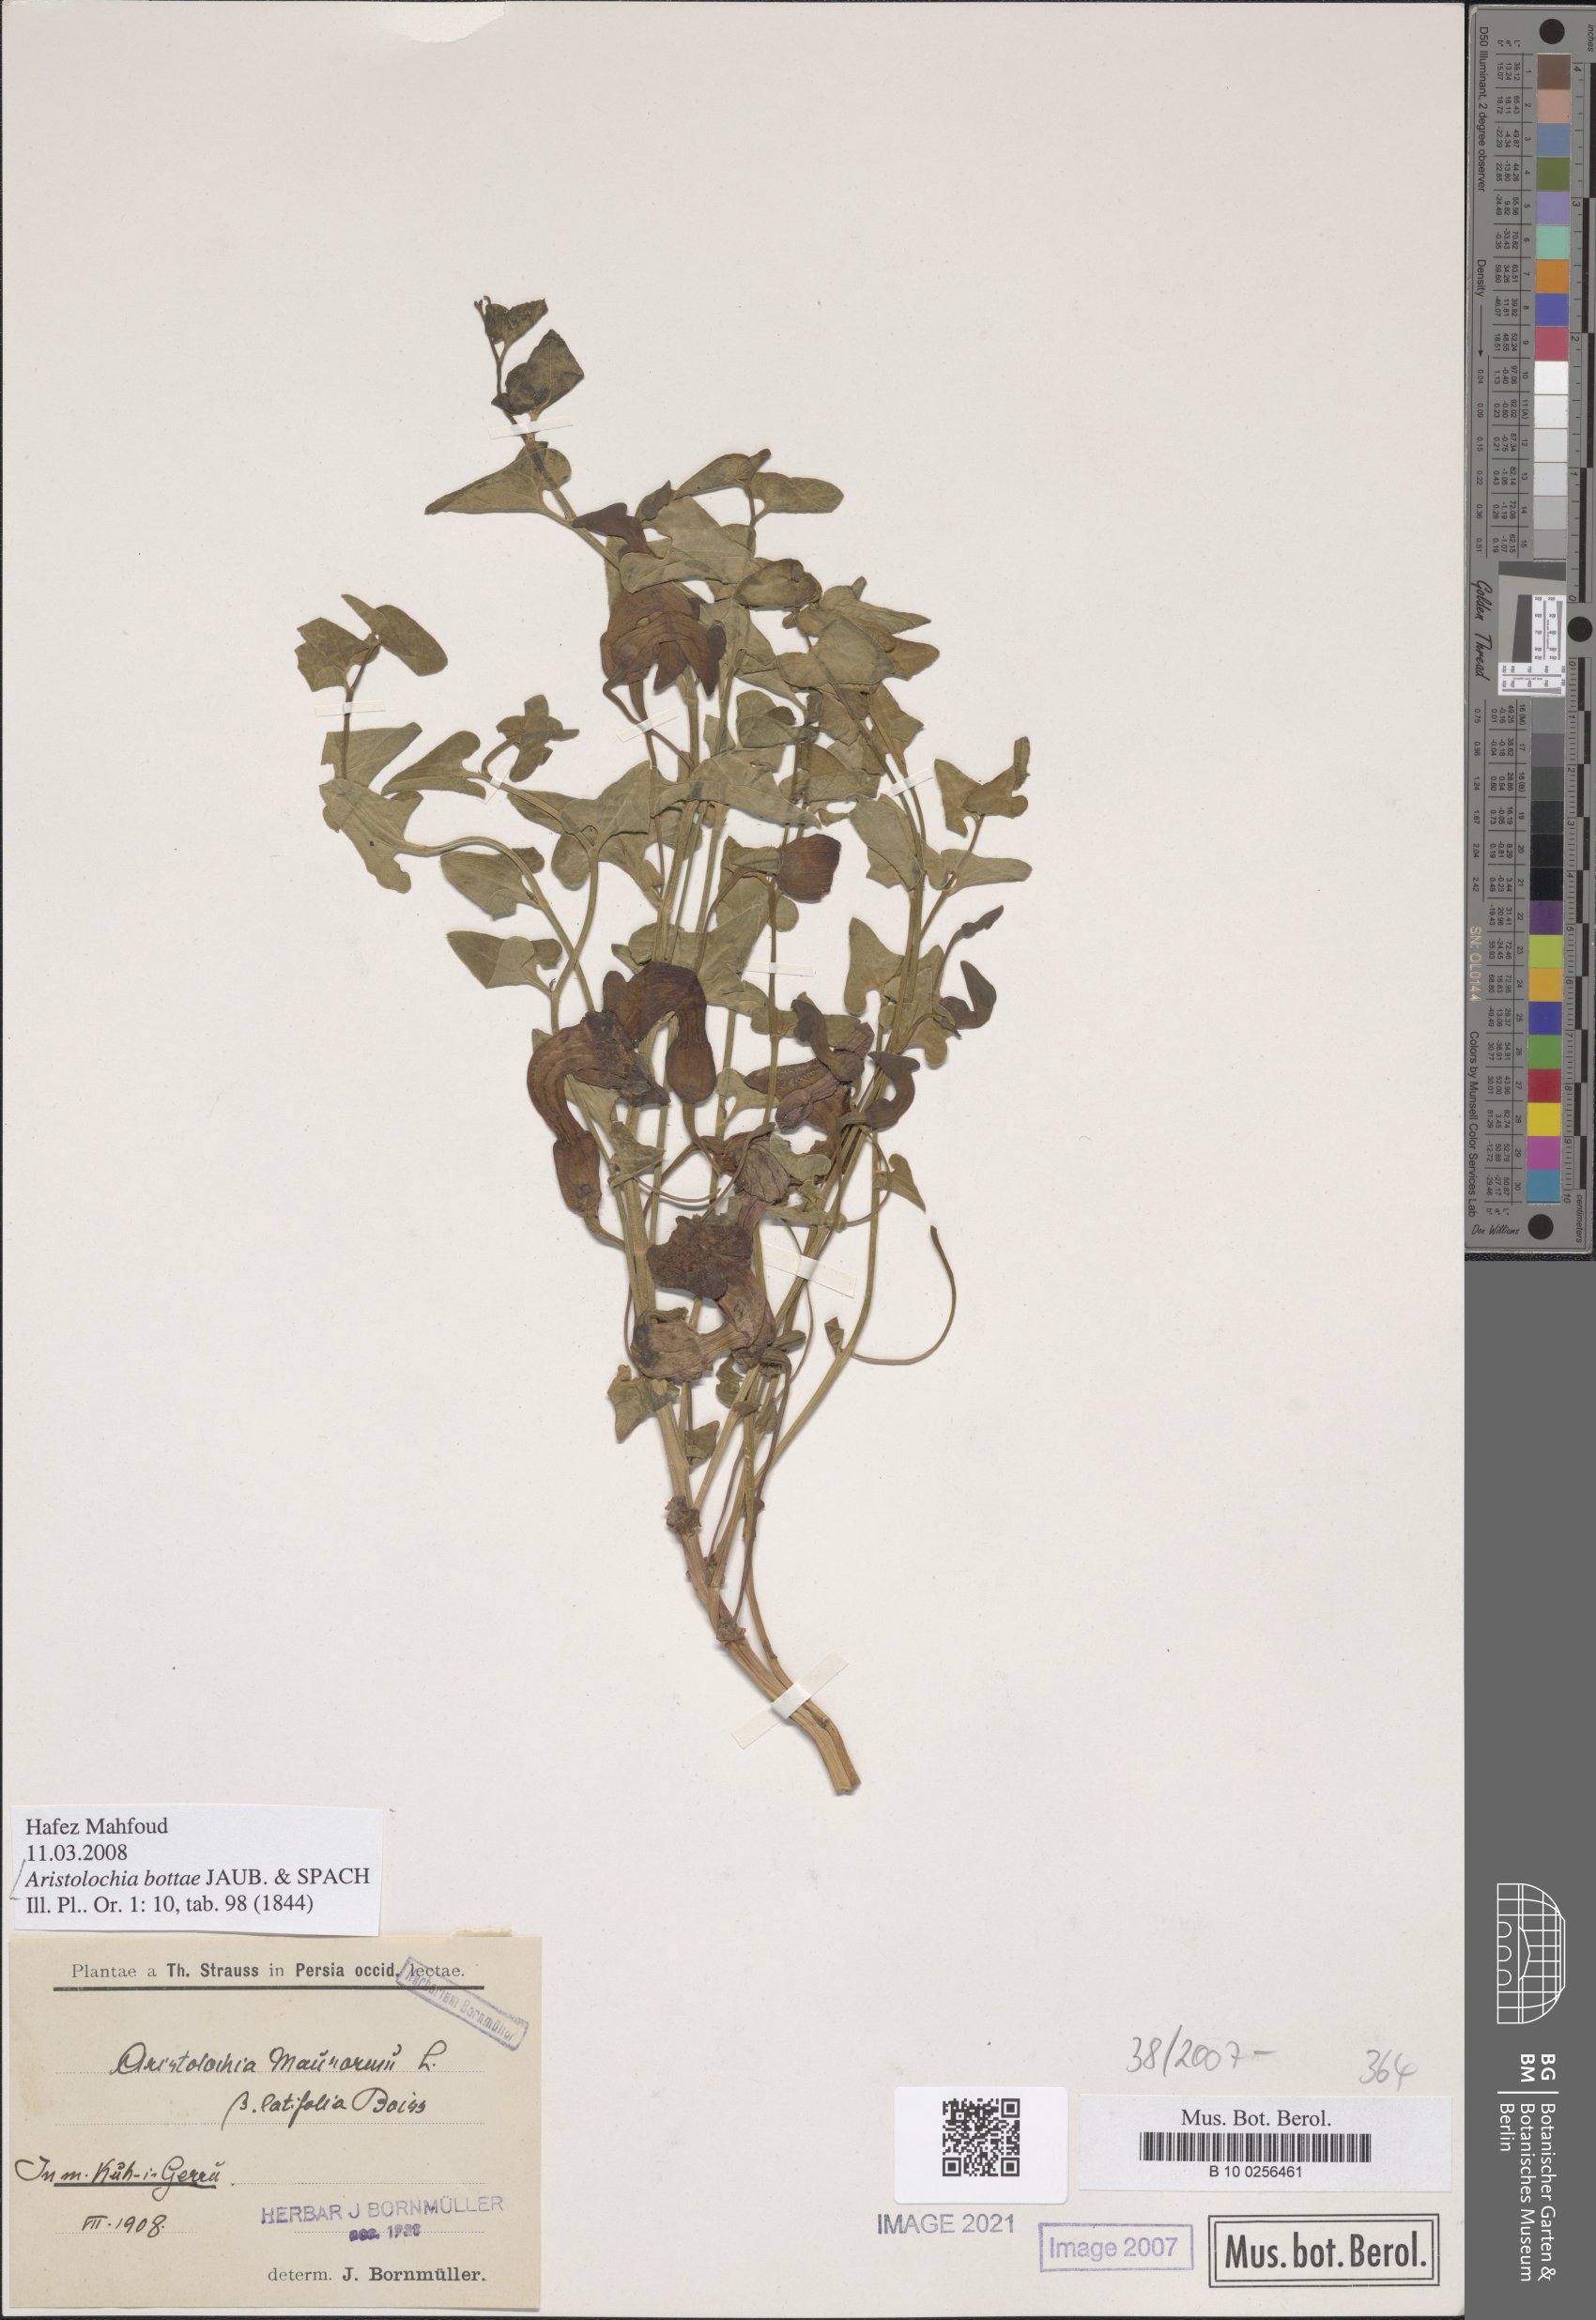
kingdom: Plantae
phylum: Tracheophyta
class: Magnoliopsida
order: Piperales
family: Aristolochiaceae
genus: Aristolochia
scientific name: Aristolochia bottae
